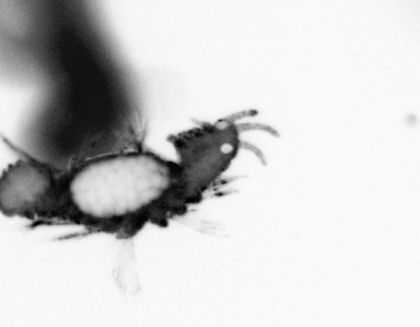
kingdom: Animalia
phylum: Annelida
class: Polychaeta
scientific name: Polychaeta
